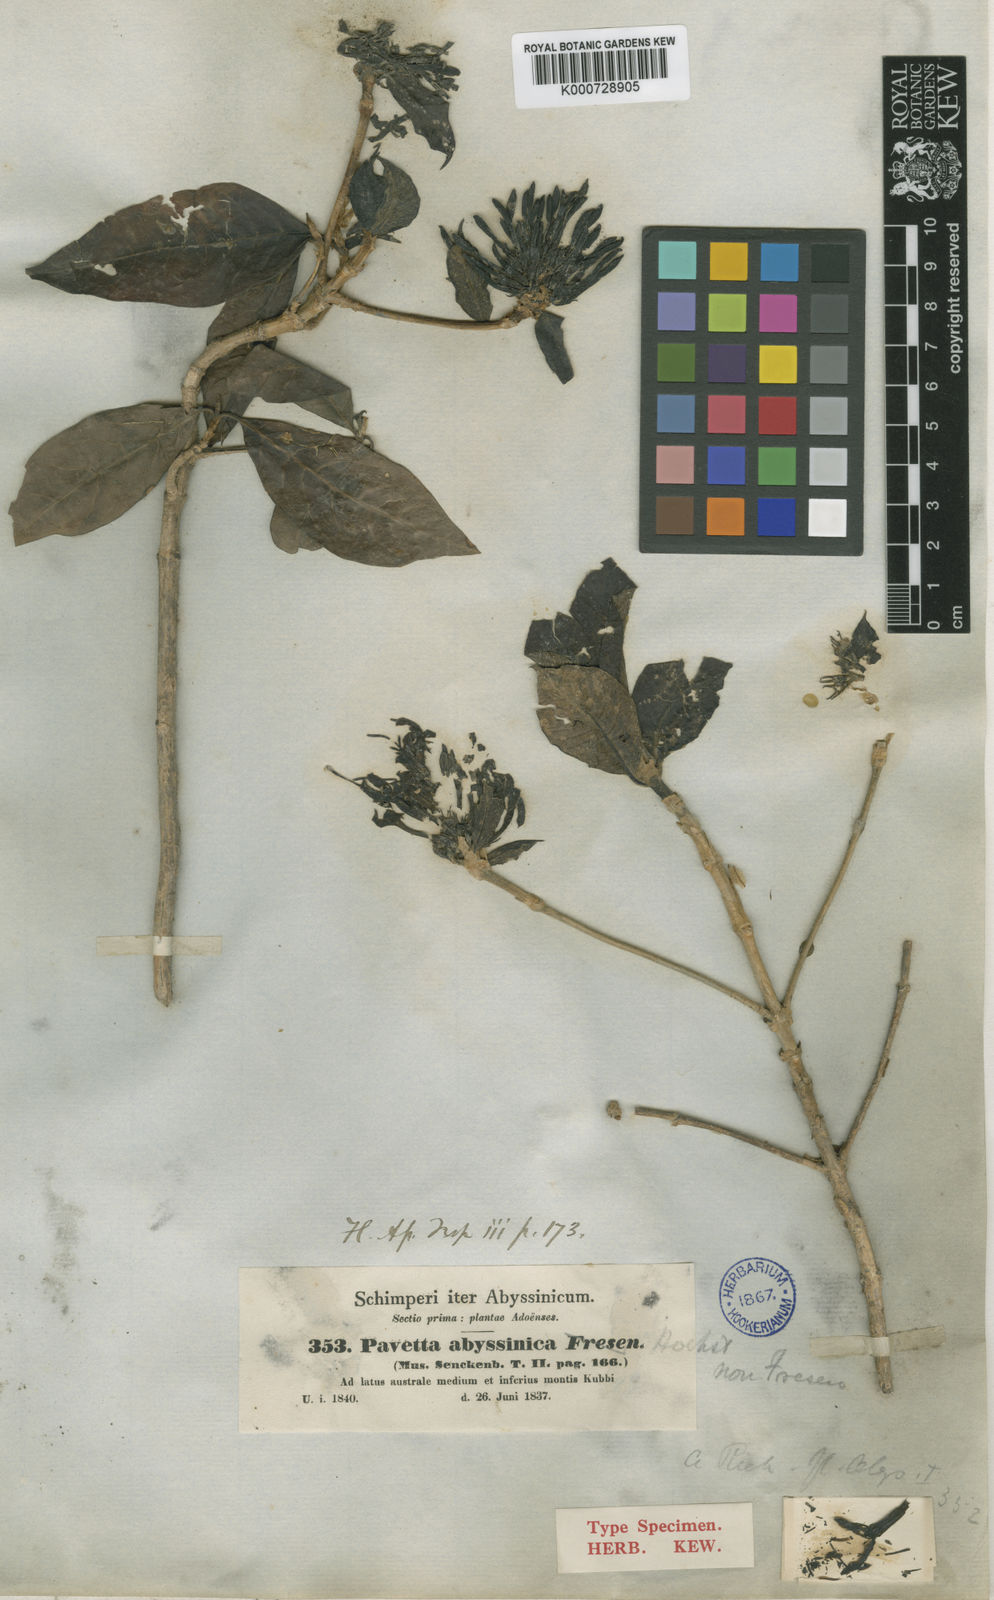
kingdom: Plantae
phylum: Tracheophyta
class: Magnoliopsida
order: Gentianales
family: Rubiaceae
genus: Pavetta
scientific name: Pavetta abyssinica
